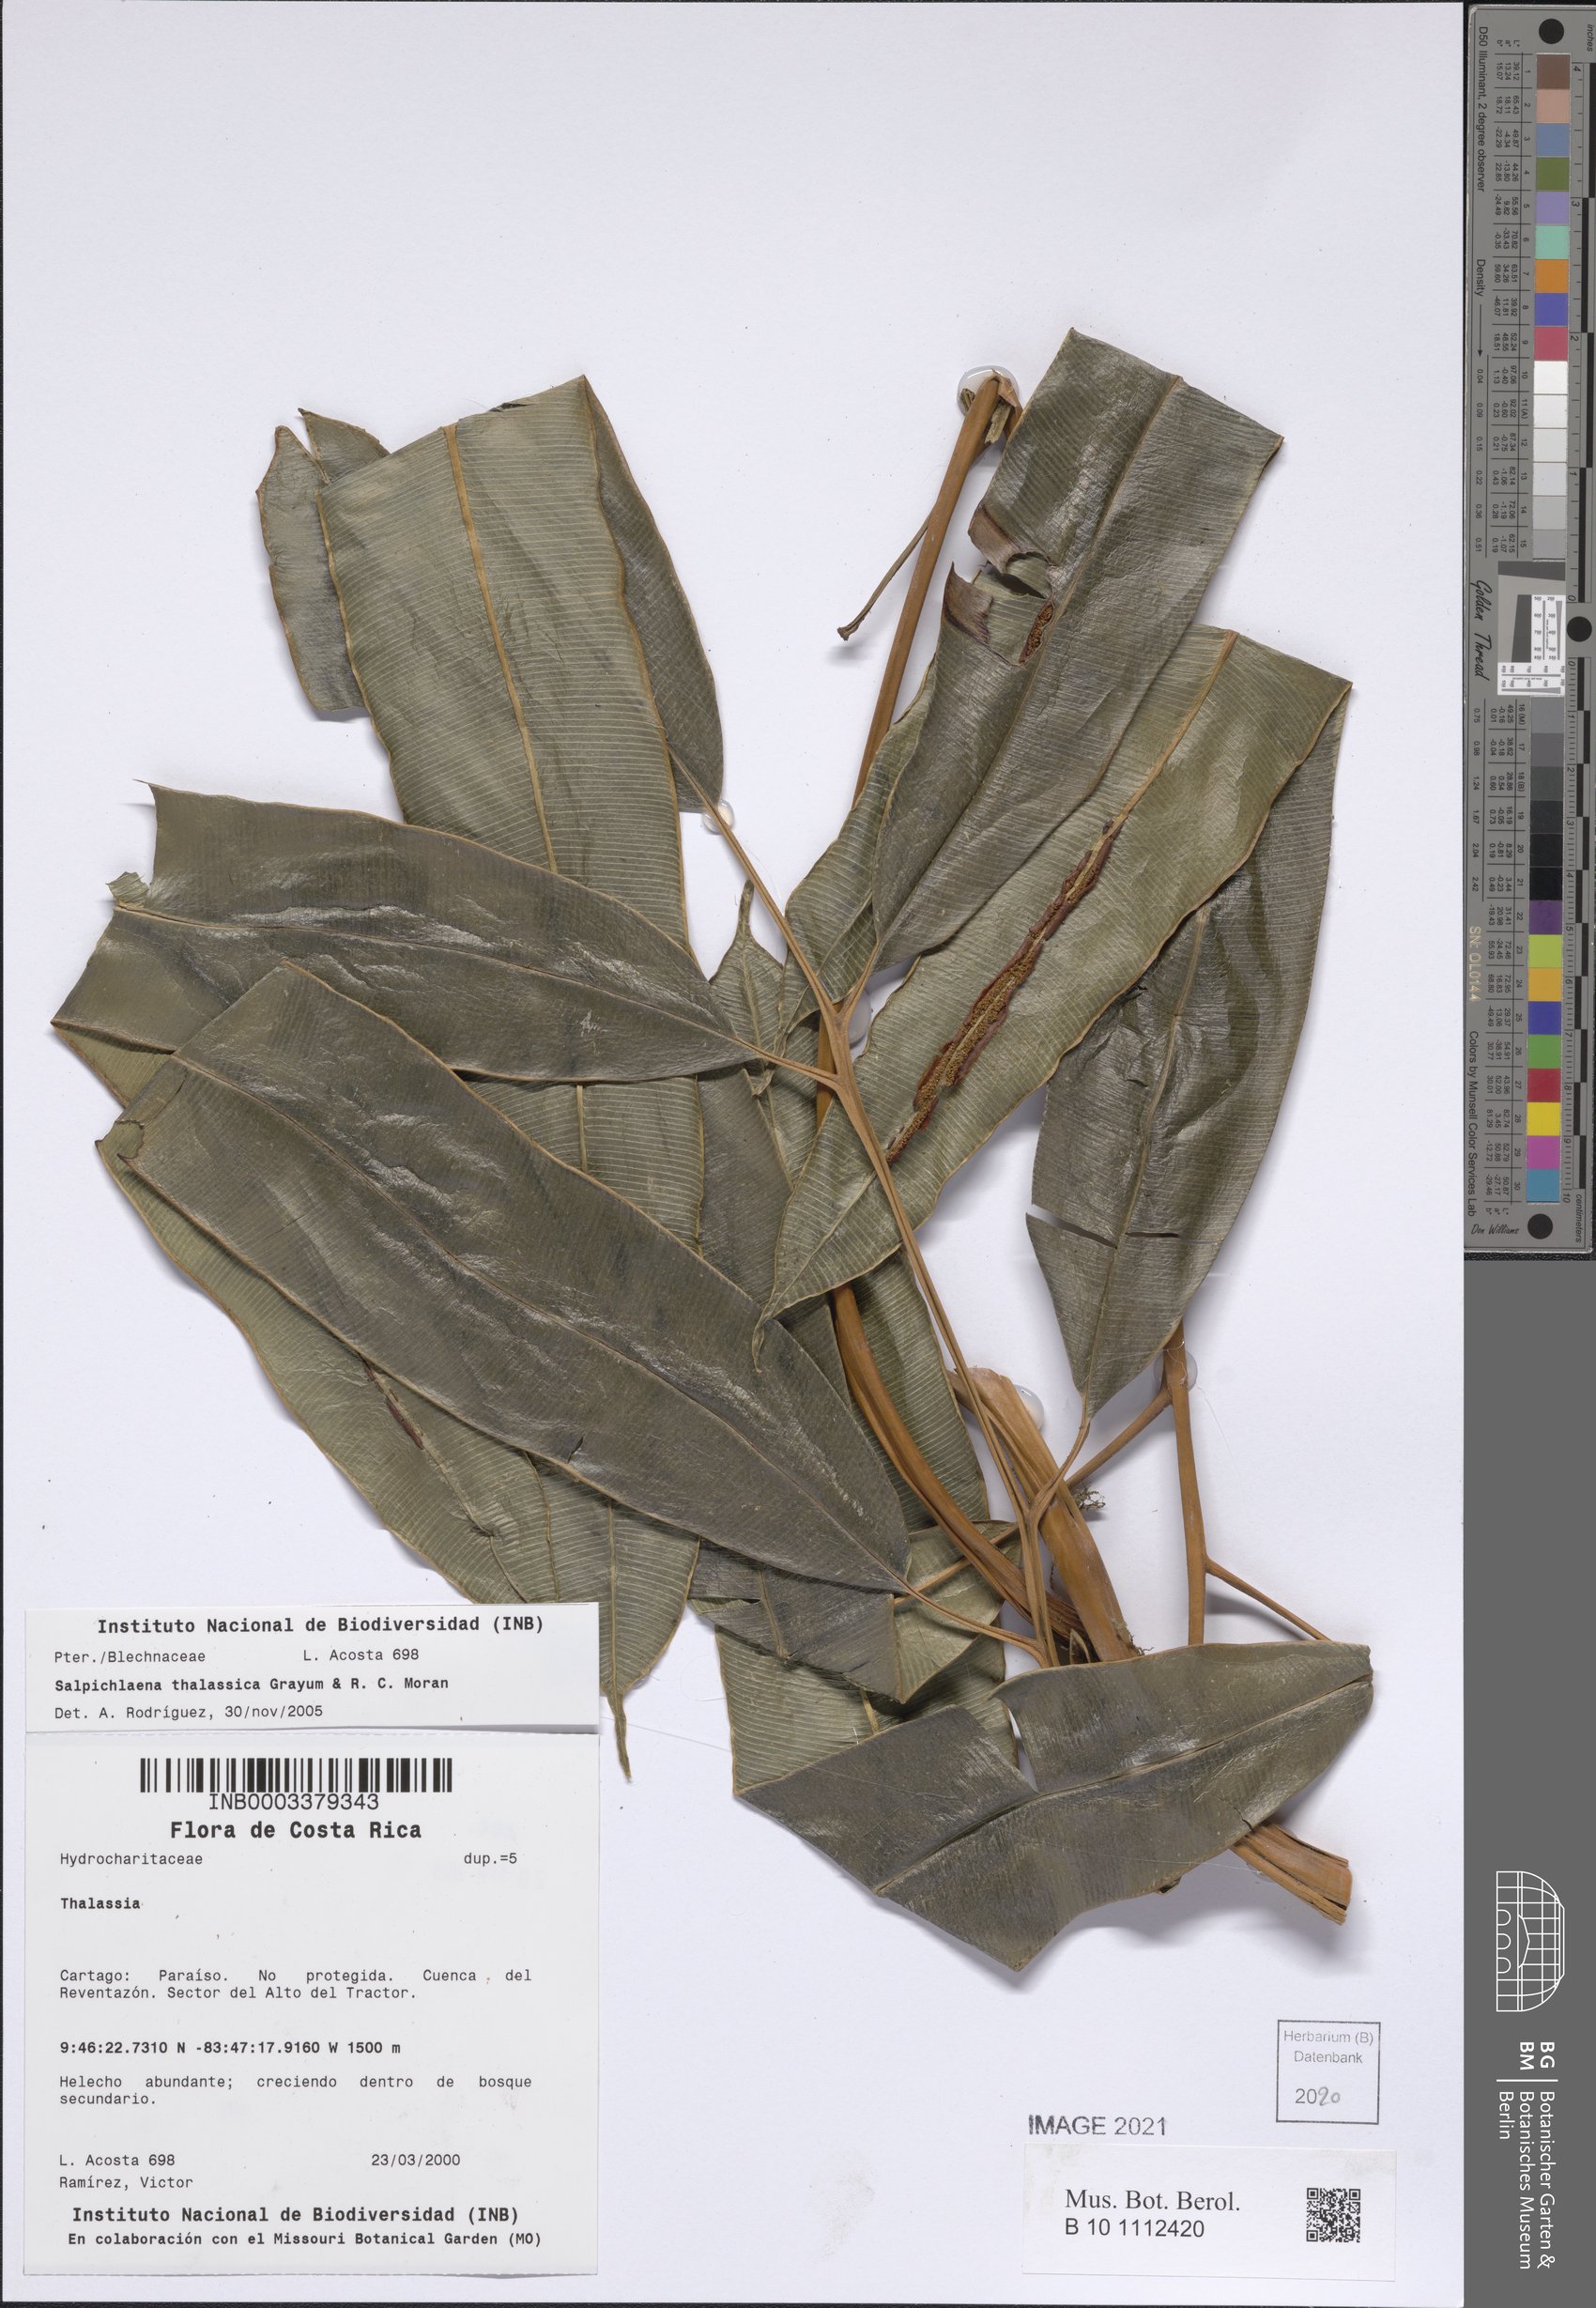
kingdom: Plantae
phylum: Tracheophyta
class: Polypodiopsida
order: Polypodiales
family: Blechnaceae
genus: Salpichlaena
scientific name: Salpichlaena volubilis
